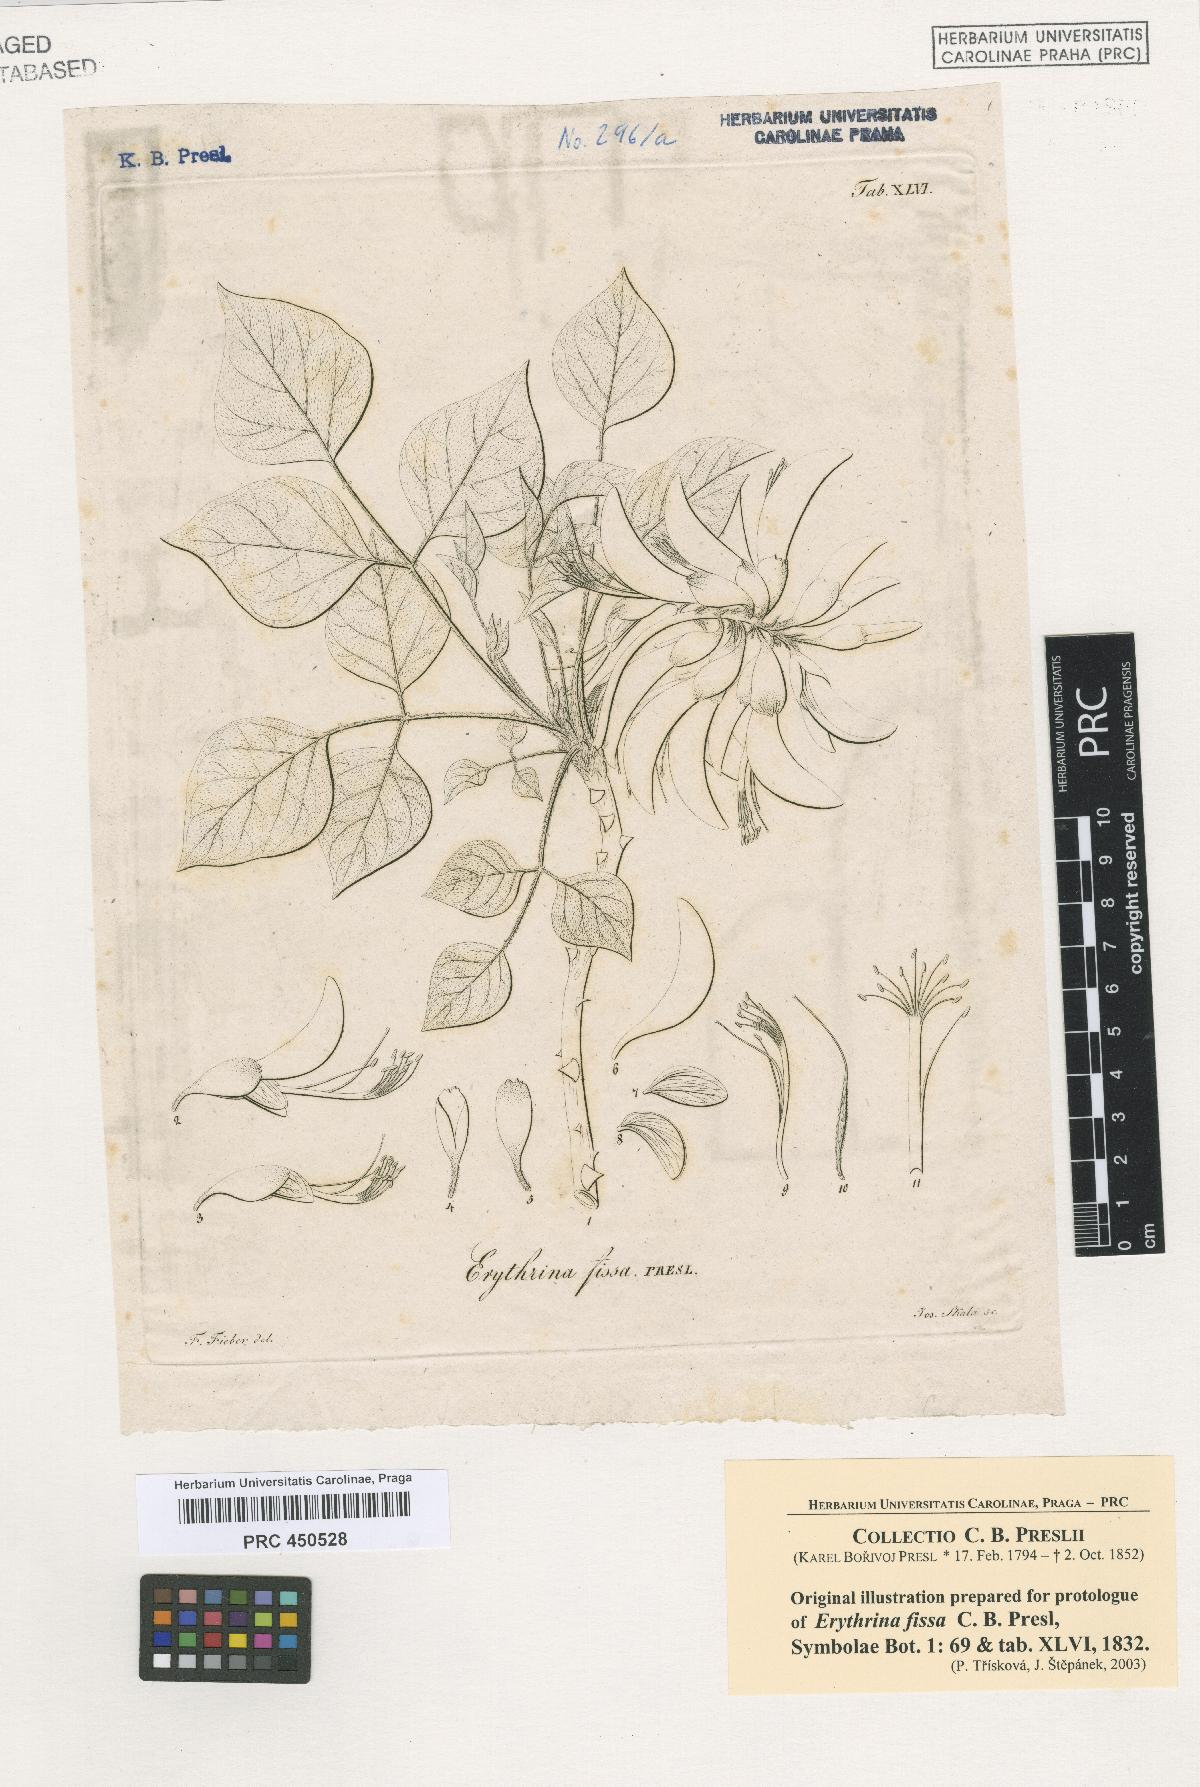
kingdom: Plantae
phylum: Tracheophyta
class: Magnoliopsida
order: Fabales
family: Fabaceae
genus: Erythrina
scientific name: Erythrina caffra
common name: Coast coral tree
